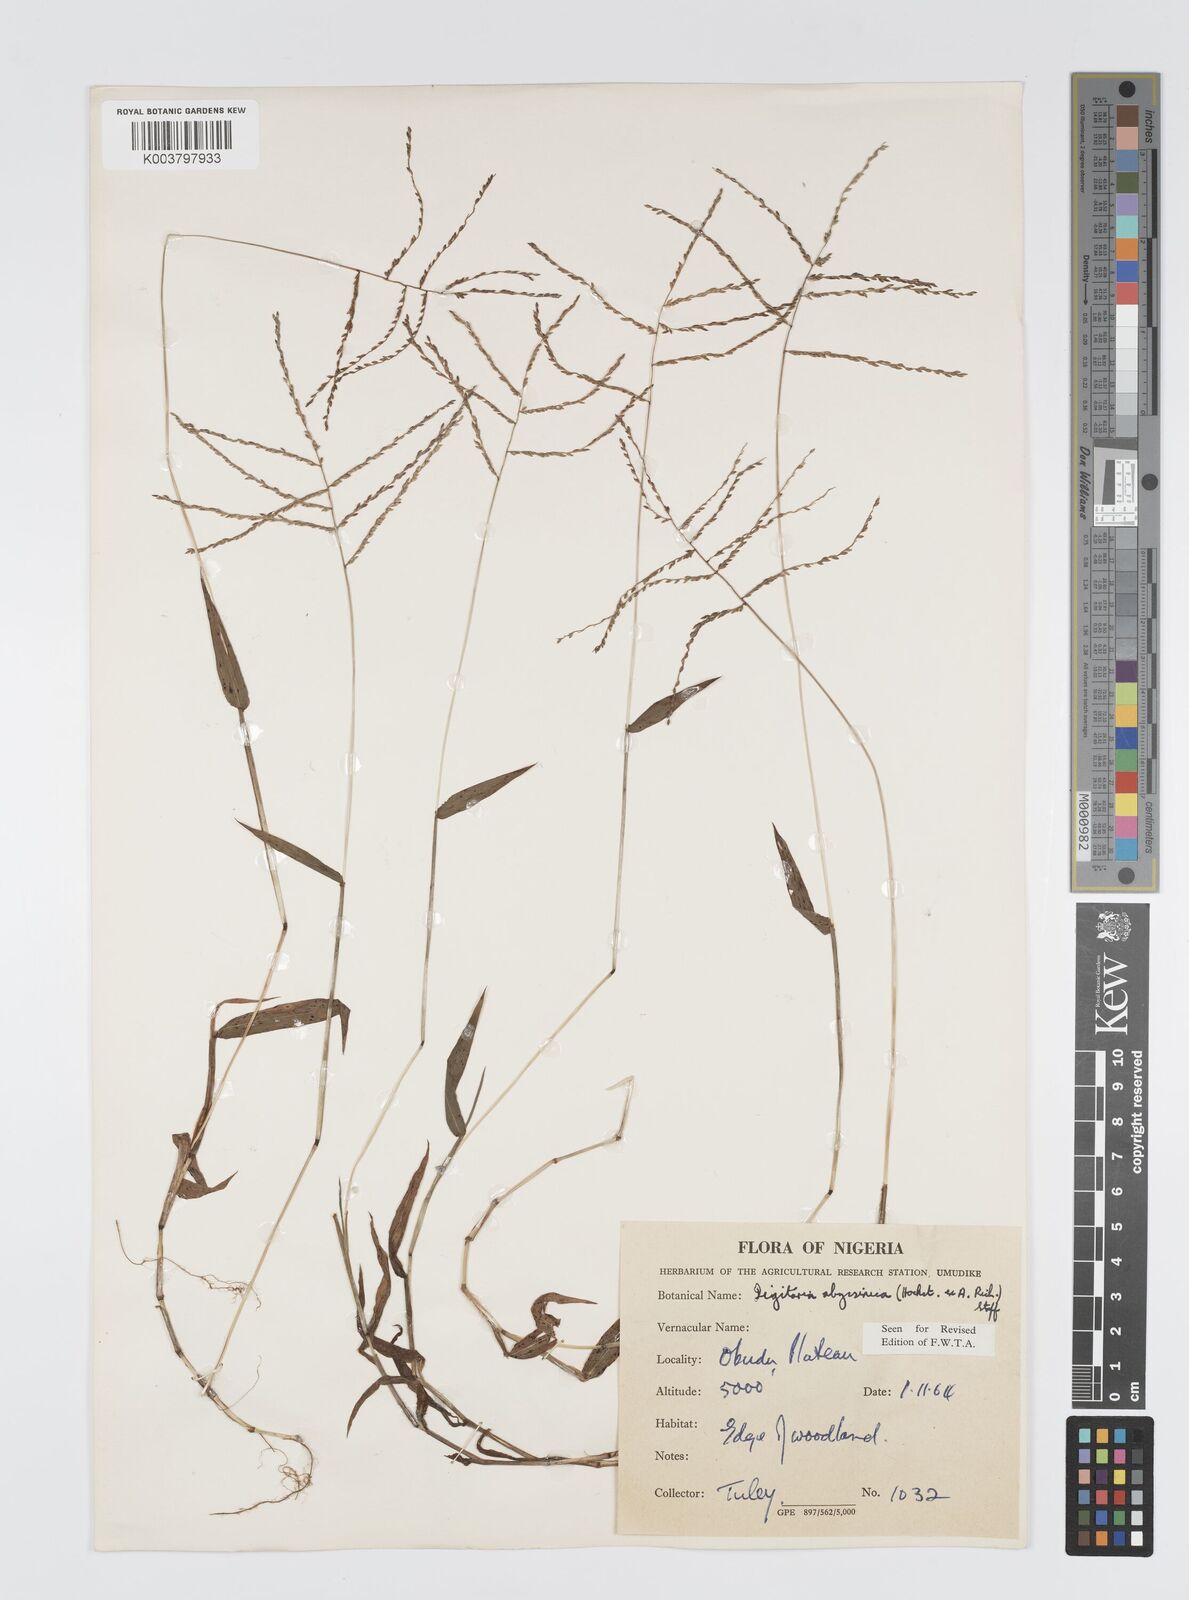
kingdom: Plantae
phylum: Tracheophyta
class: Liliopsida
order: Poales
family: Poaceae
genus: Digitaria
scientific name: Digitaria abyssinica
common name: African couchgrass
